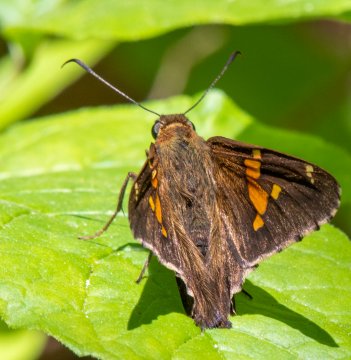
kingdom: Animalia
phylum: Arthropoda
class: Insecta
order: Lepidoptera
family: Hesperiidae
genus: Epargyreus
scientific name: Epargyreus clarus
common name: Silver-spotted Skipper
